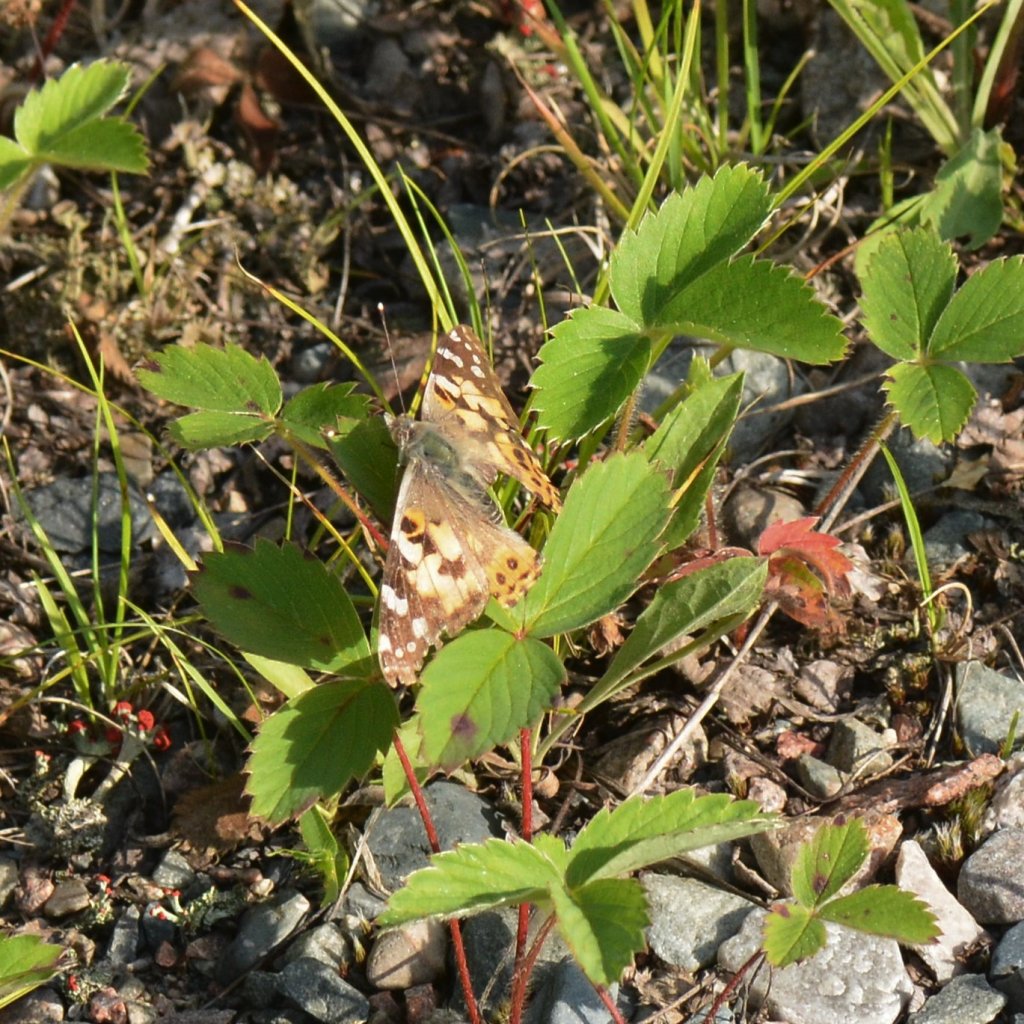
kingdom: Animalia
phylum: Arthropoda
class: Insecta
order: Lepidoptera
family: Nymphalidae
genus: Vanessa
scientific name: Vanessa cardui
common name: Painted Lady
